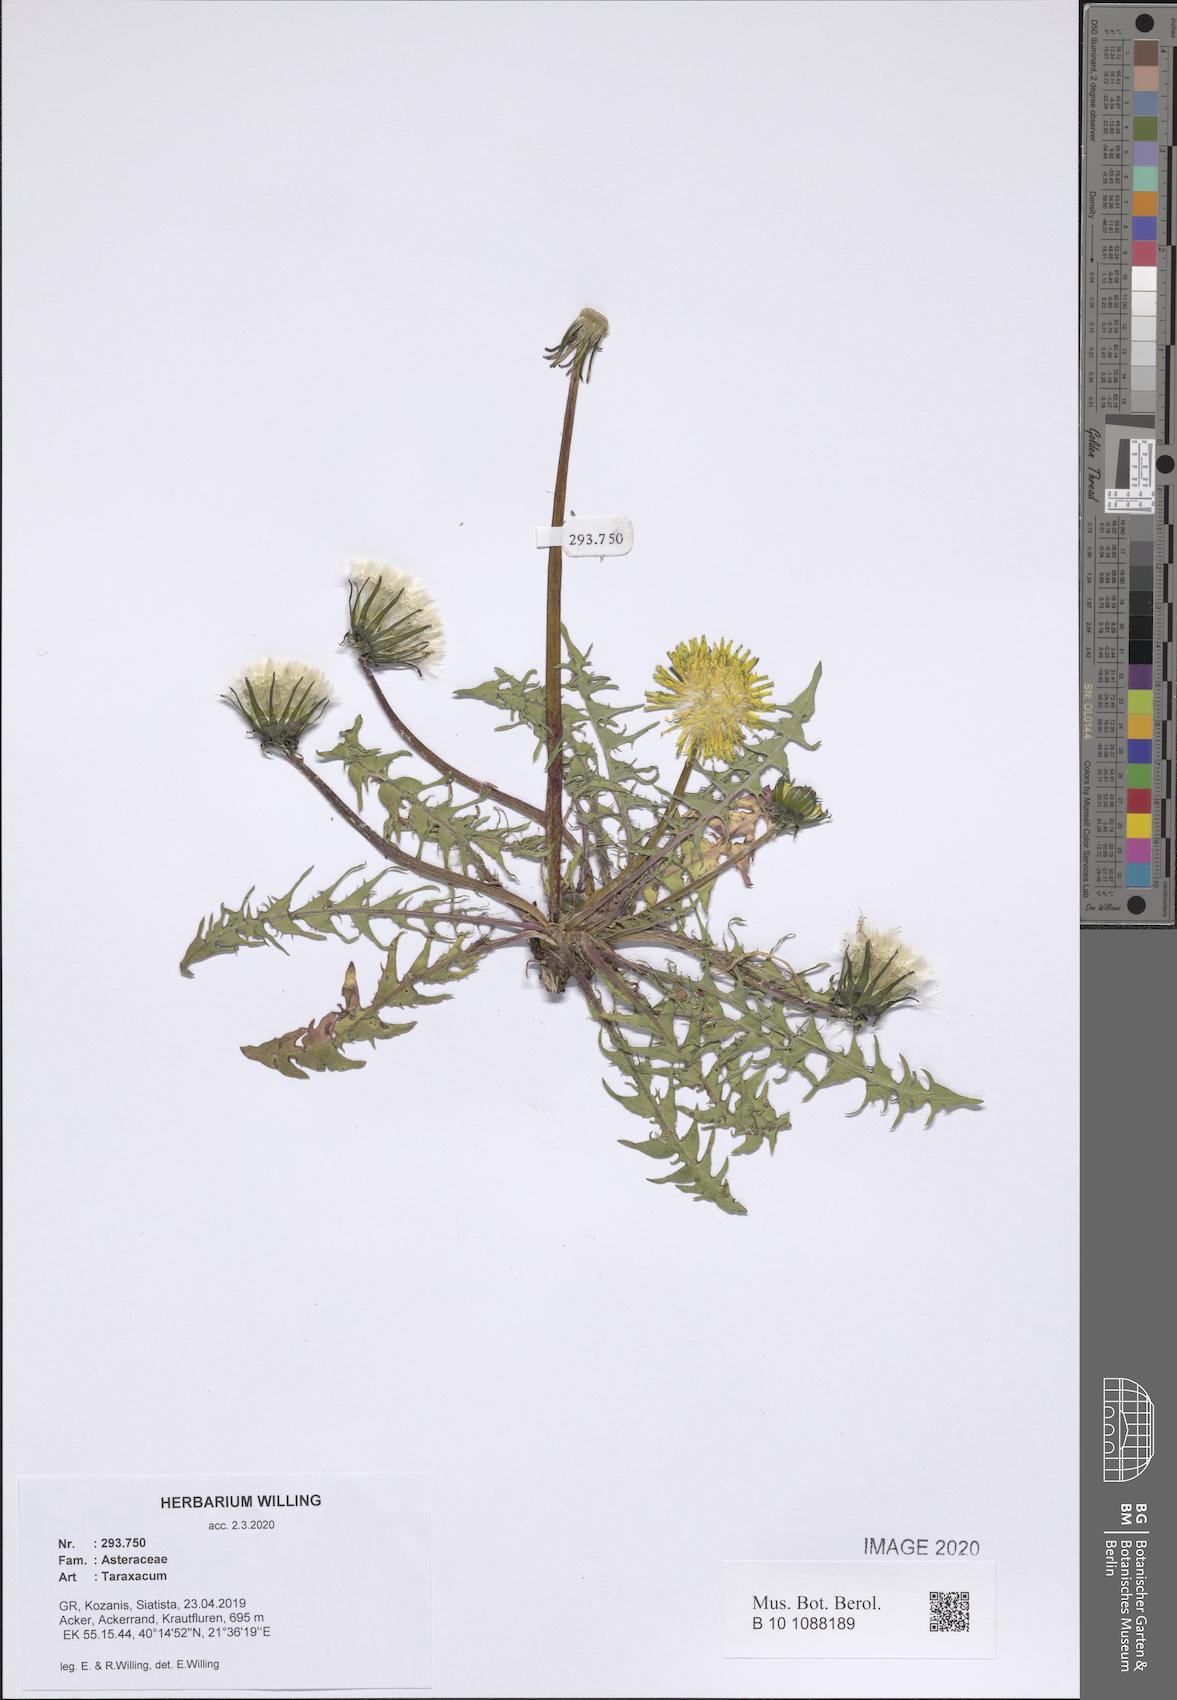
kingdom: Plantae
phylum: Tracheophyta
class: Magnoliopsida
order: Asterales
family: Asteraceae
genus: Taraxacum
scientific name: Taraxacum
